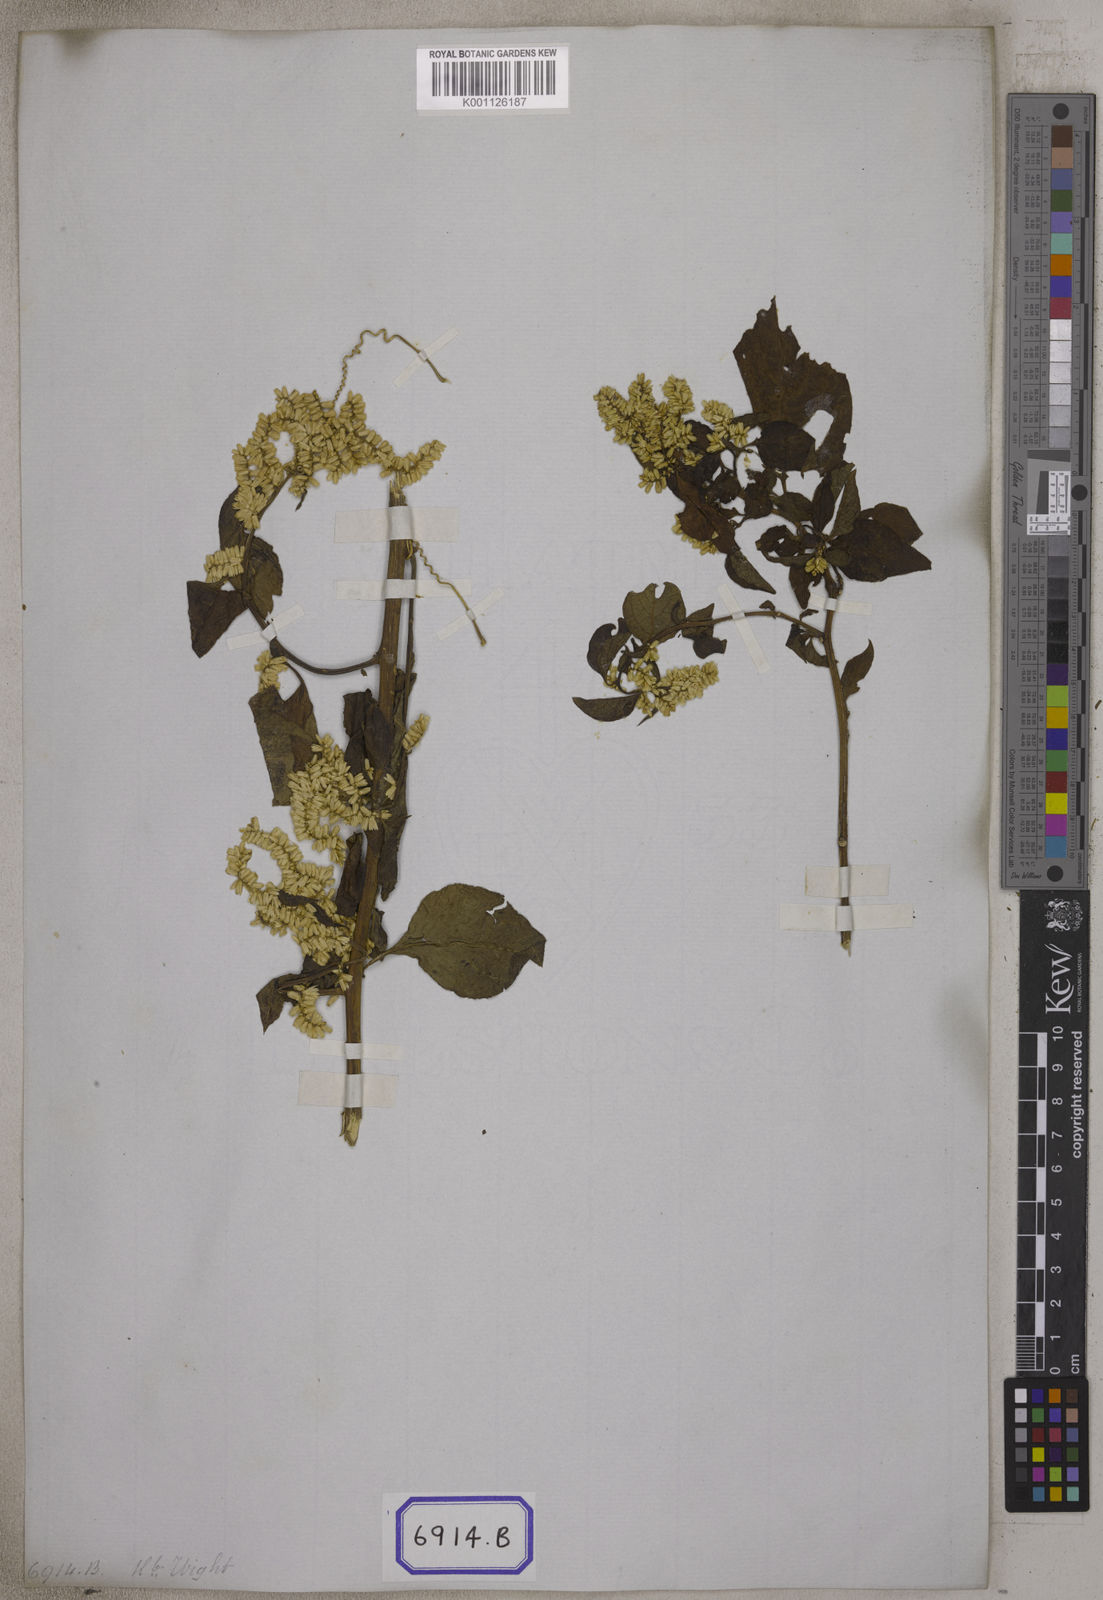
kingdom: Plantae
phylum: Tracheophyta
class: Magnoliopsida
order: Caryophyllales
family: Amaranthaceae
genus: Indobanalia
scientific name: Indobanalia thyrsiflora
